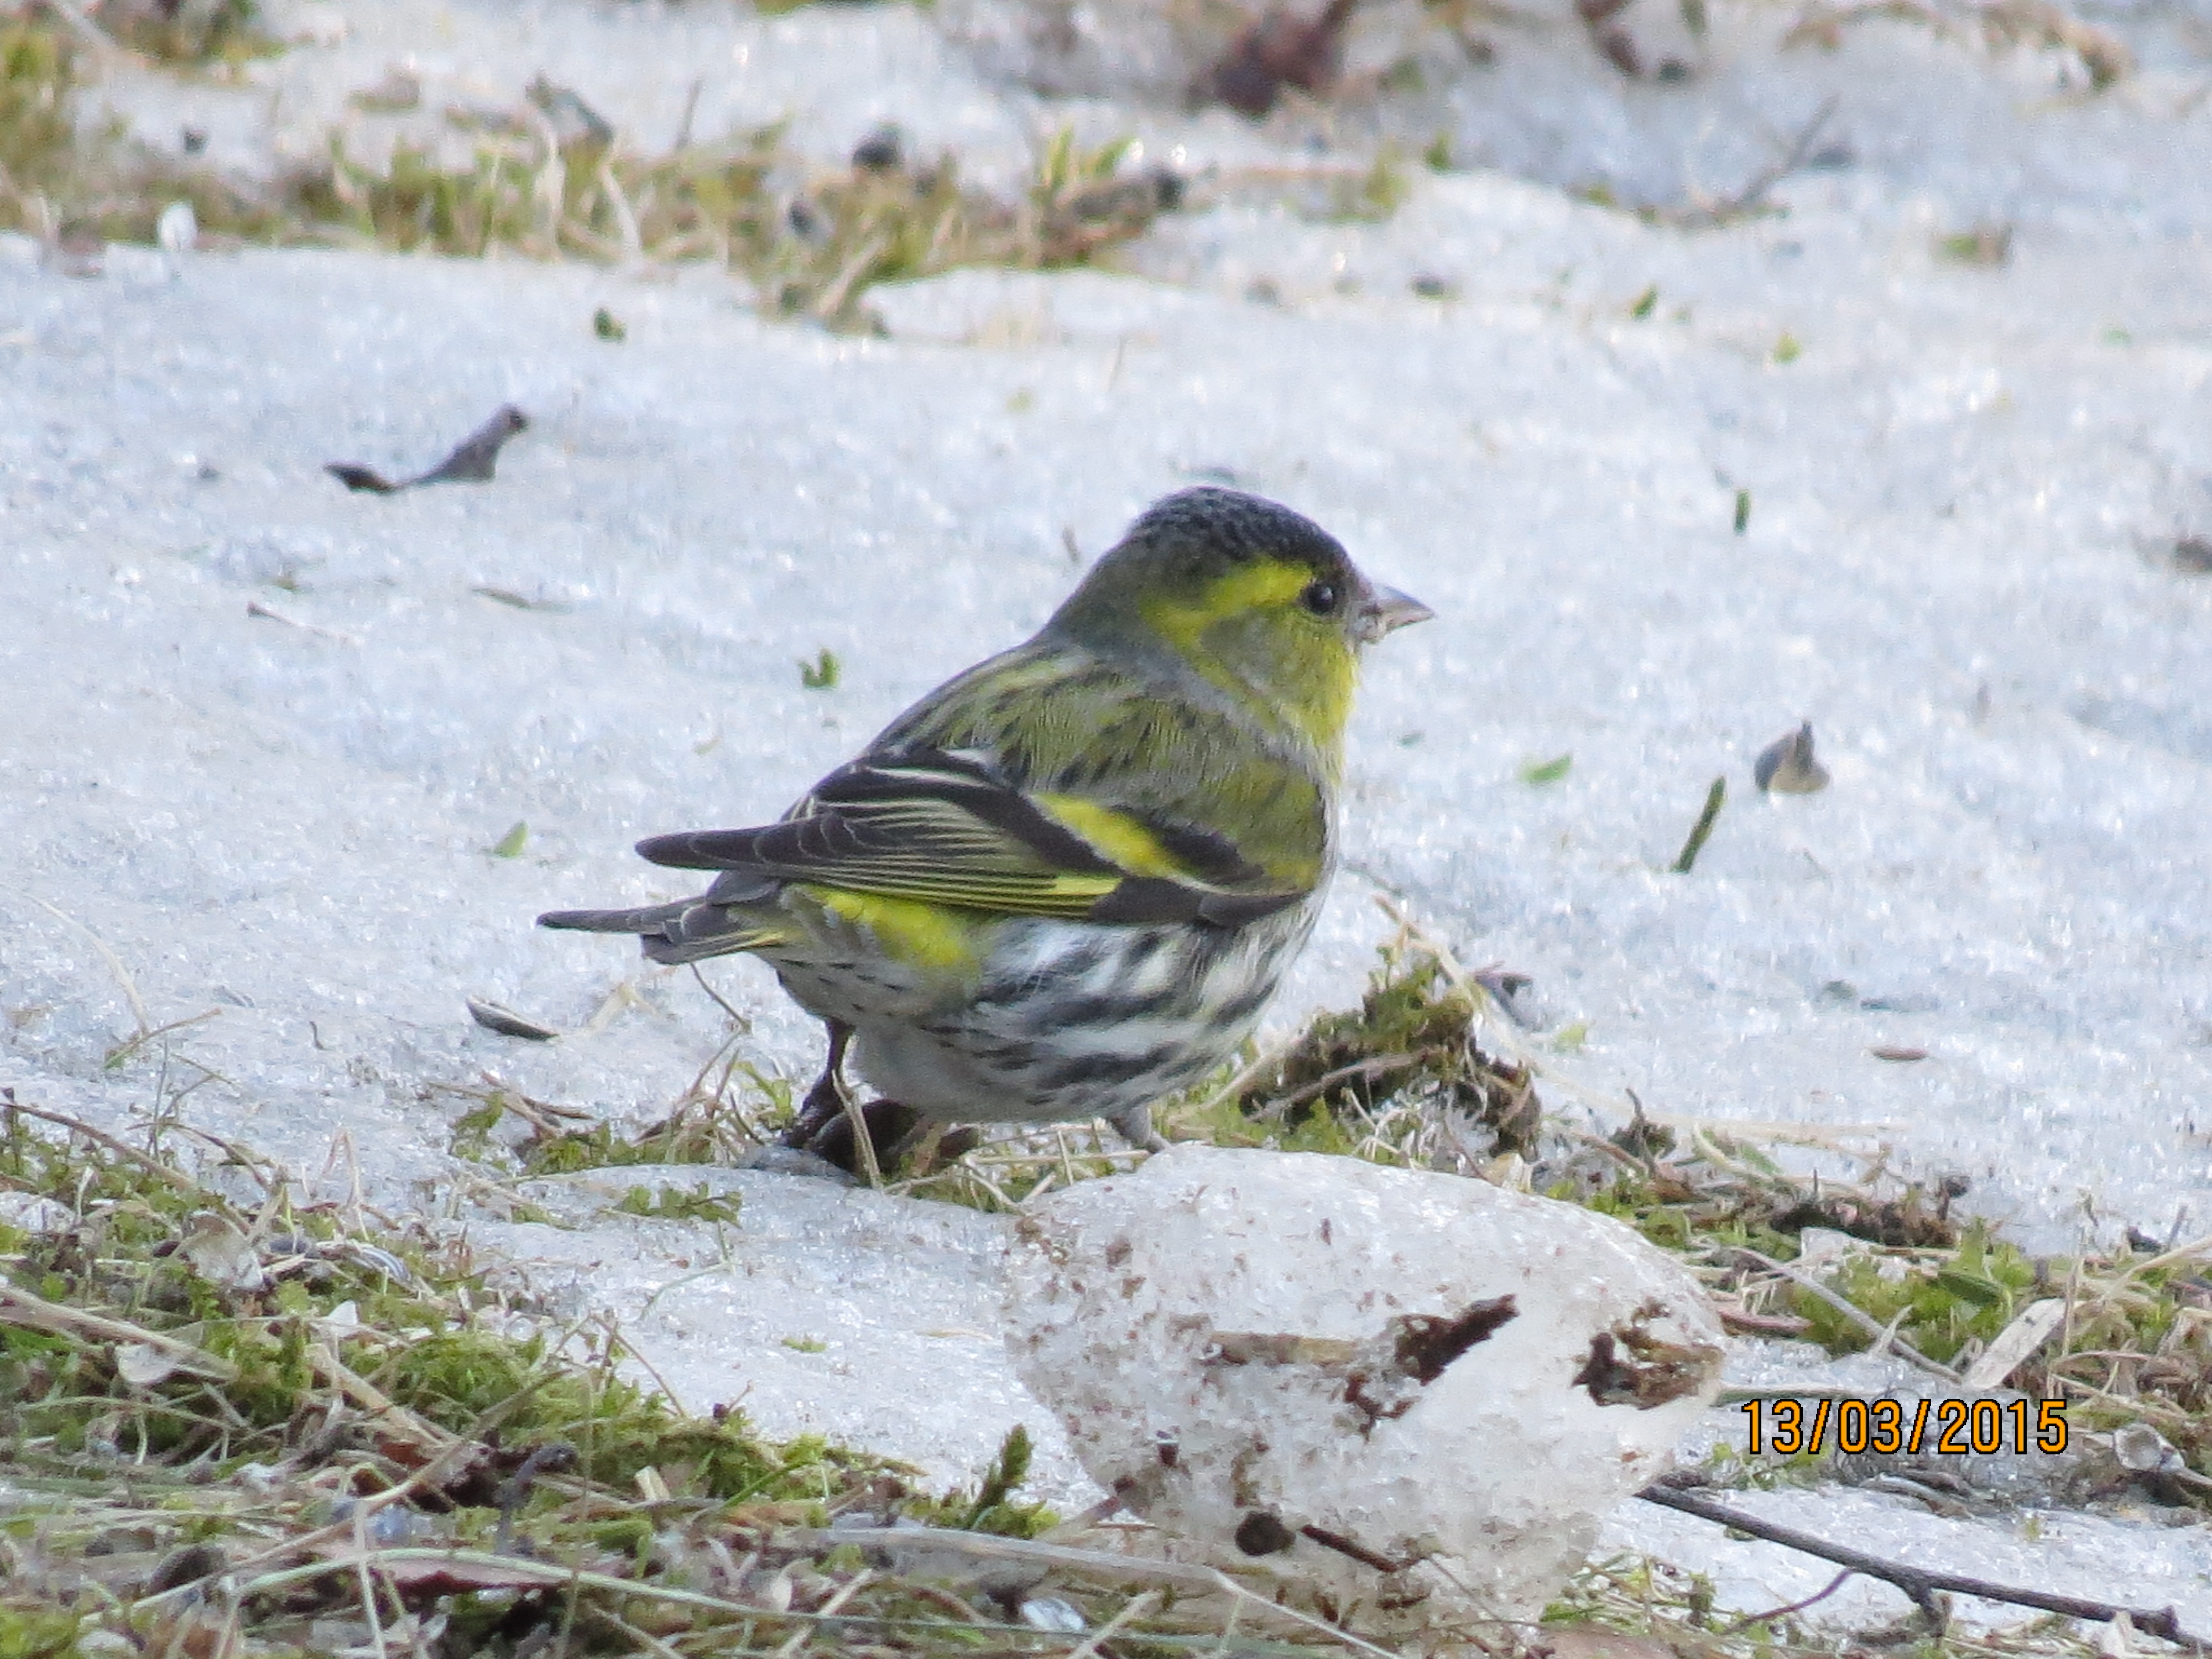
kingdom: Animalia
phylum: Chordata
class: Aves
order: Passeriformes
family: Fringillidae
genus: Spinus
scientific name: Spinus spinus
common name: Eurasian siskin
